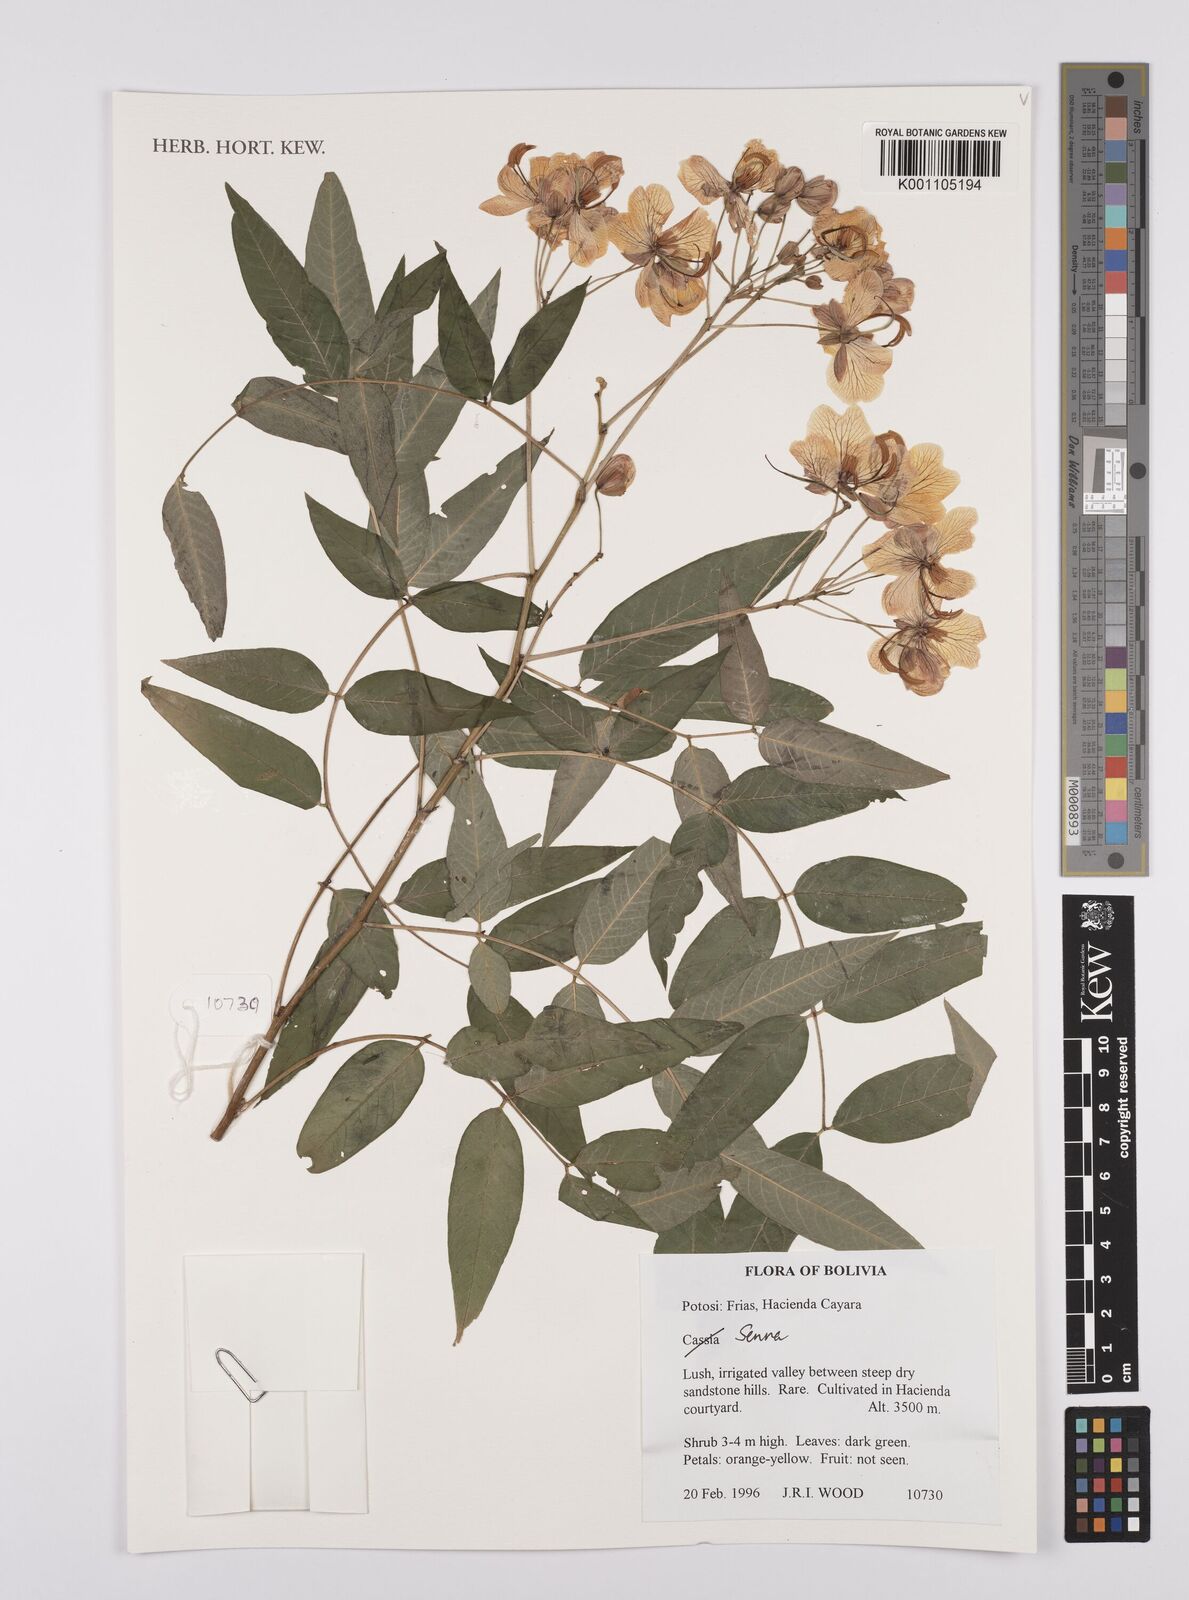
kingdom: Plantae
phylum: Tracheophyta
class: Magnoliopsida
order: Fabales
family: Fabaceae
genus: Senna
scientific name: Senna
